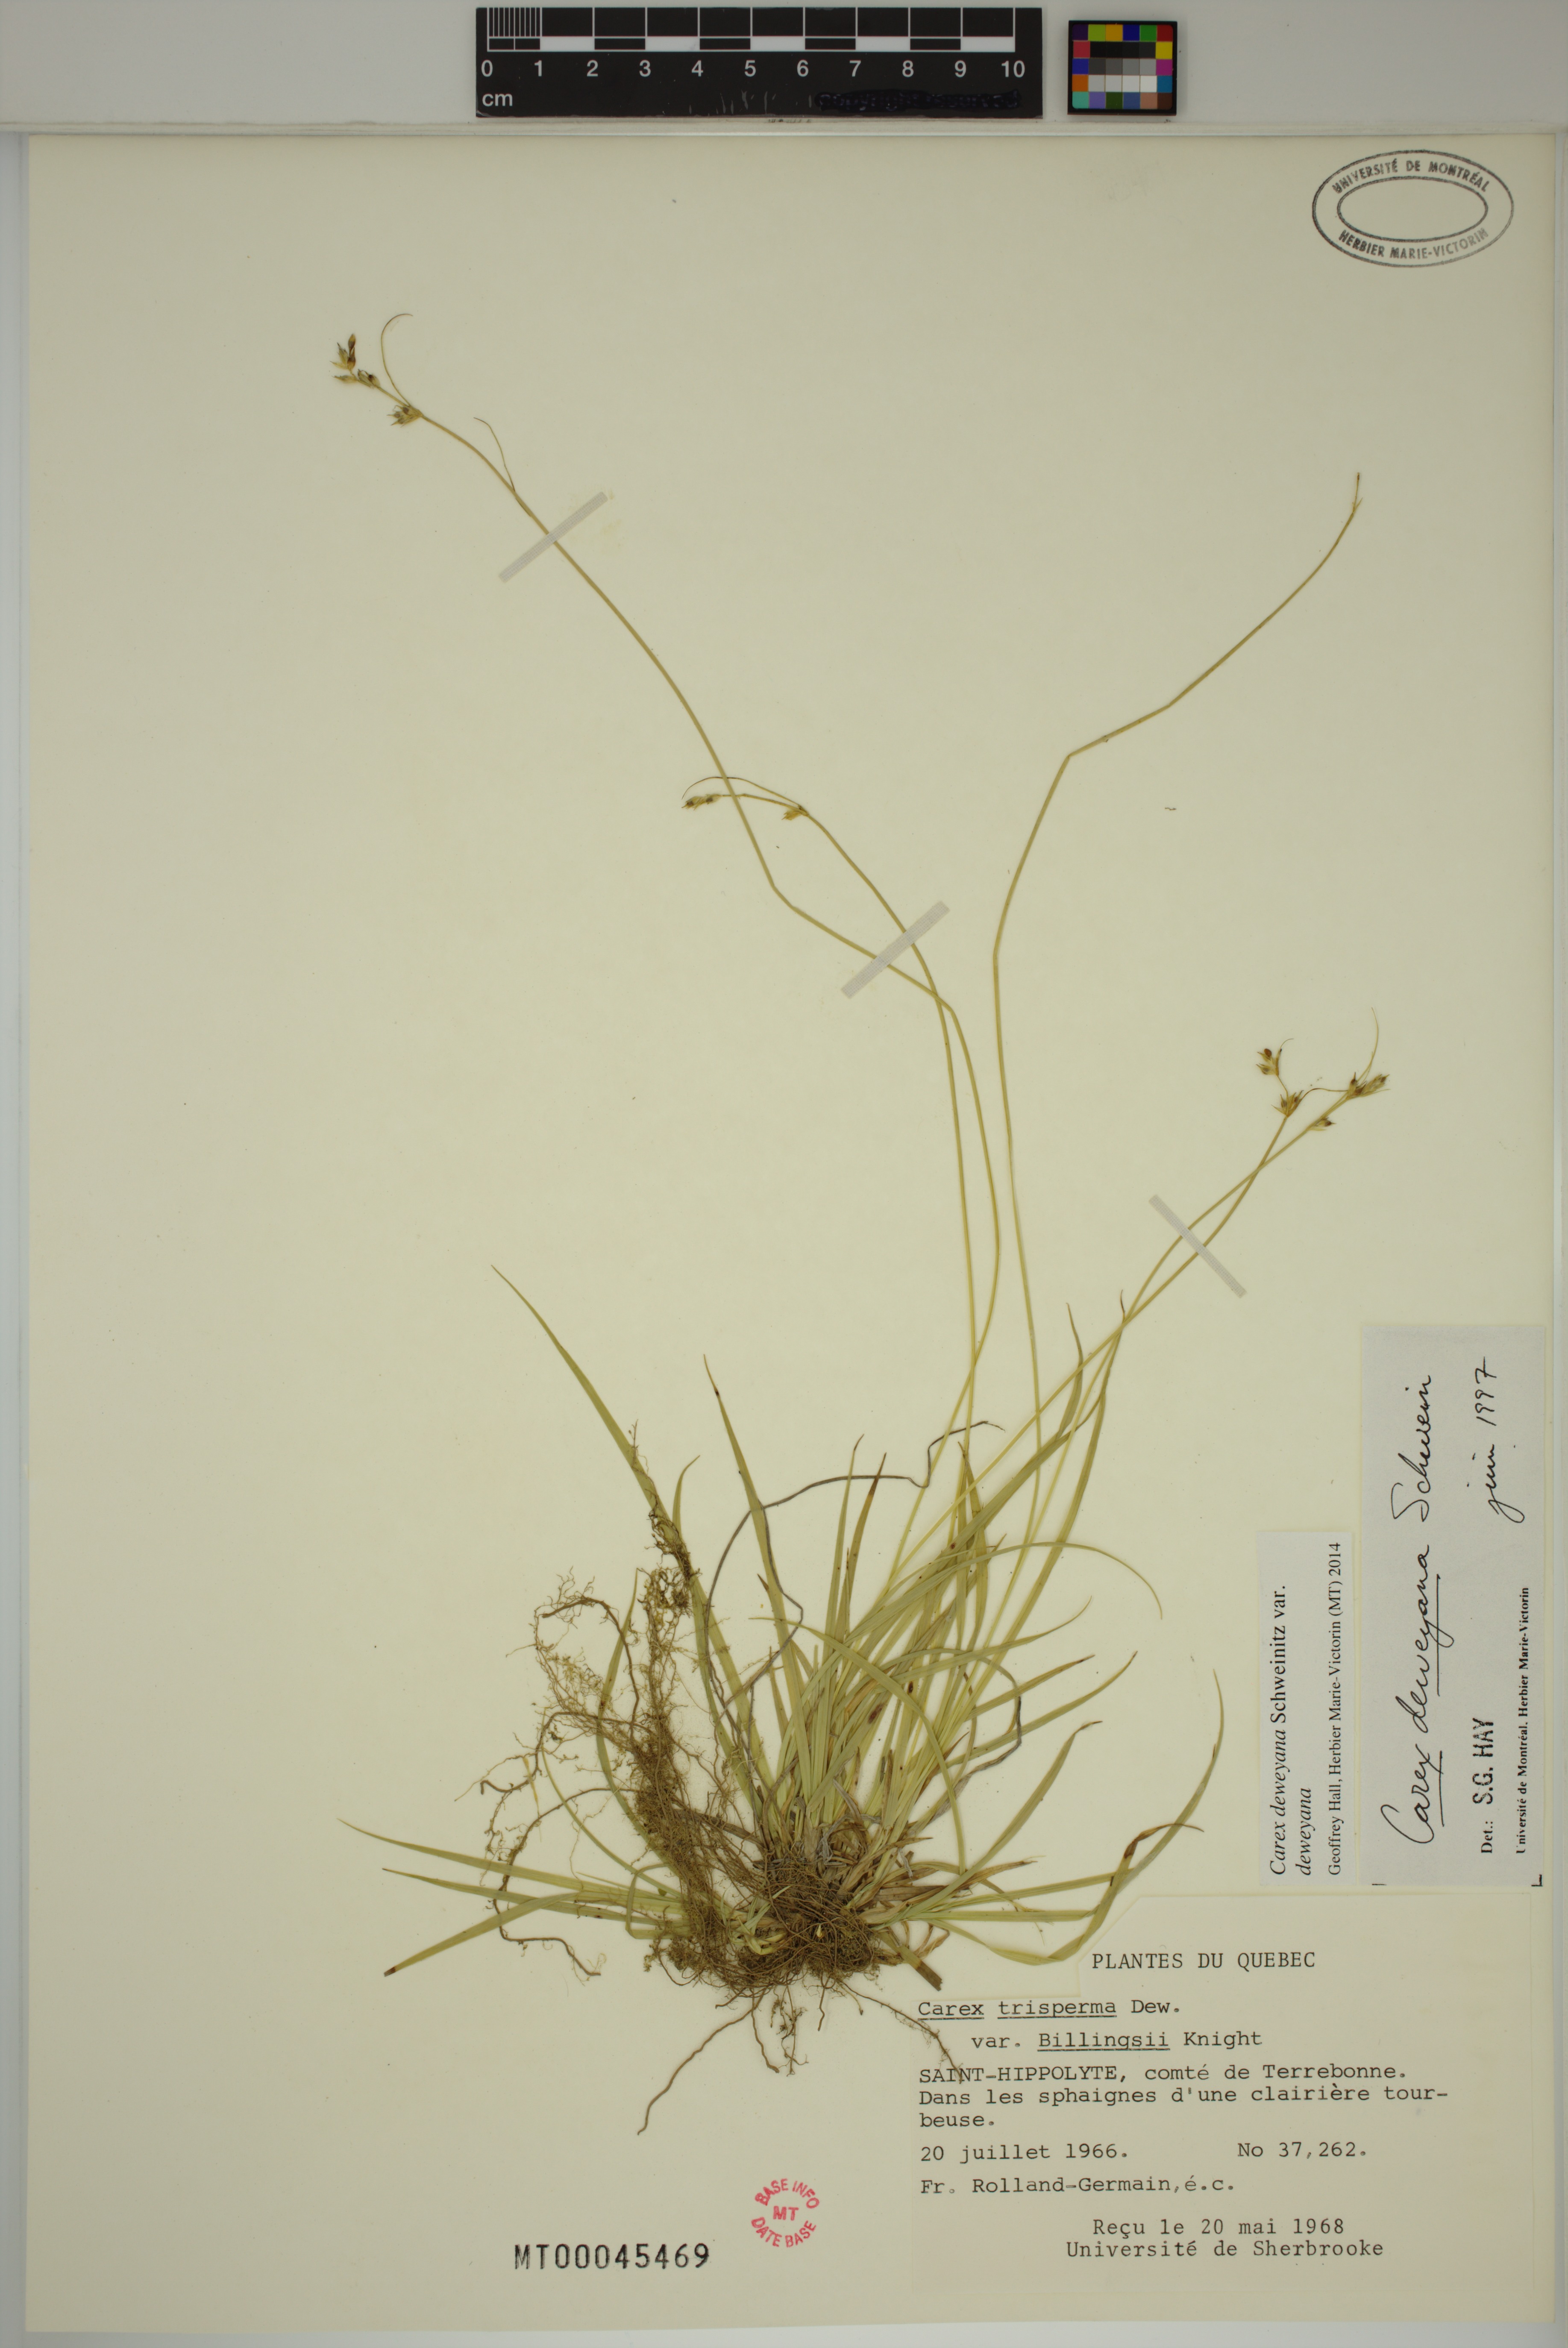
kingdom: Plantae
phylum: Tracheophyta
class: Liliopsida
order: Poales
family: Cyperaceae
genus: Carex
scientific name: Carex deweyana
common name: Dewey's sedge
